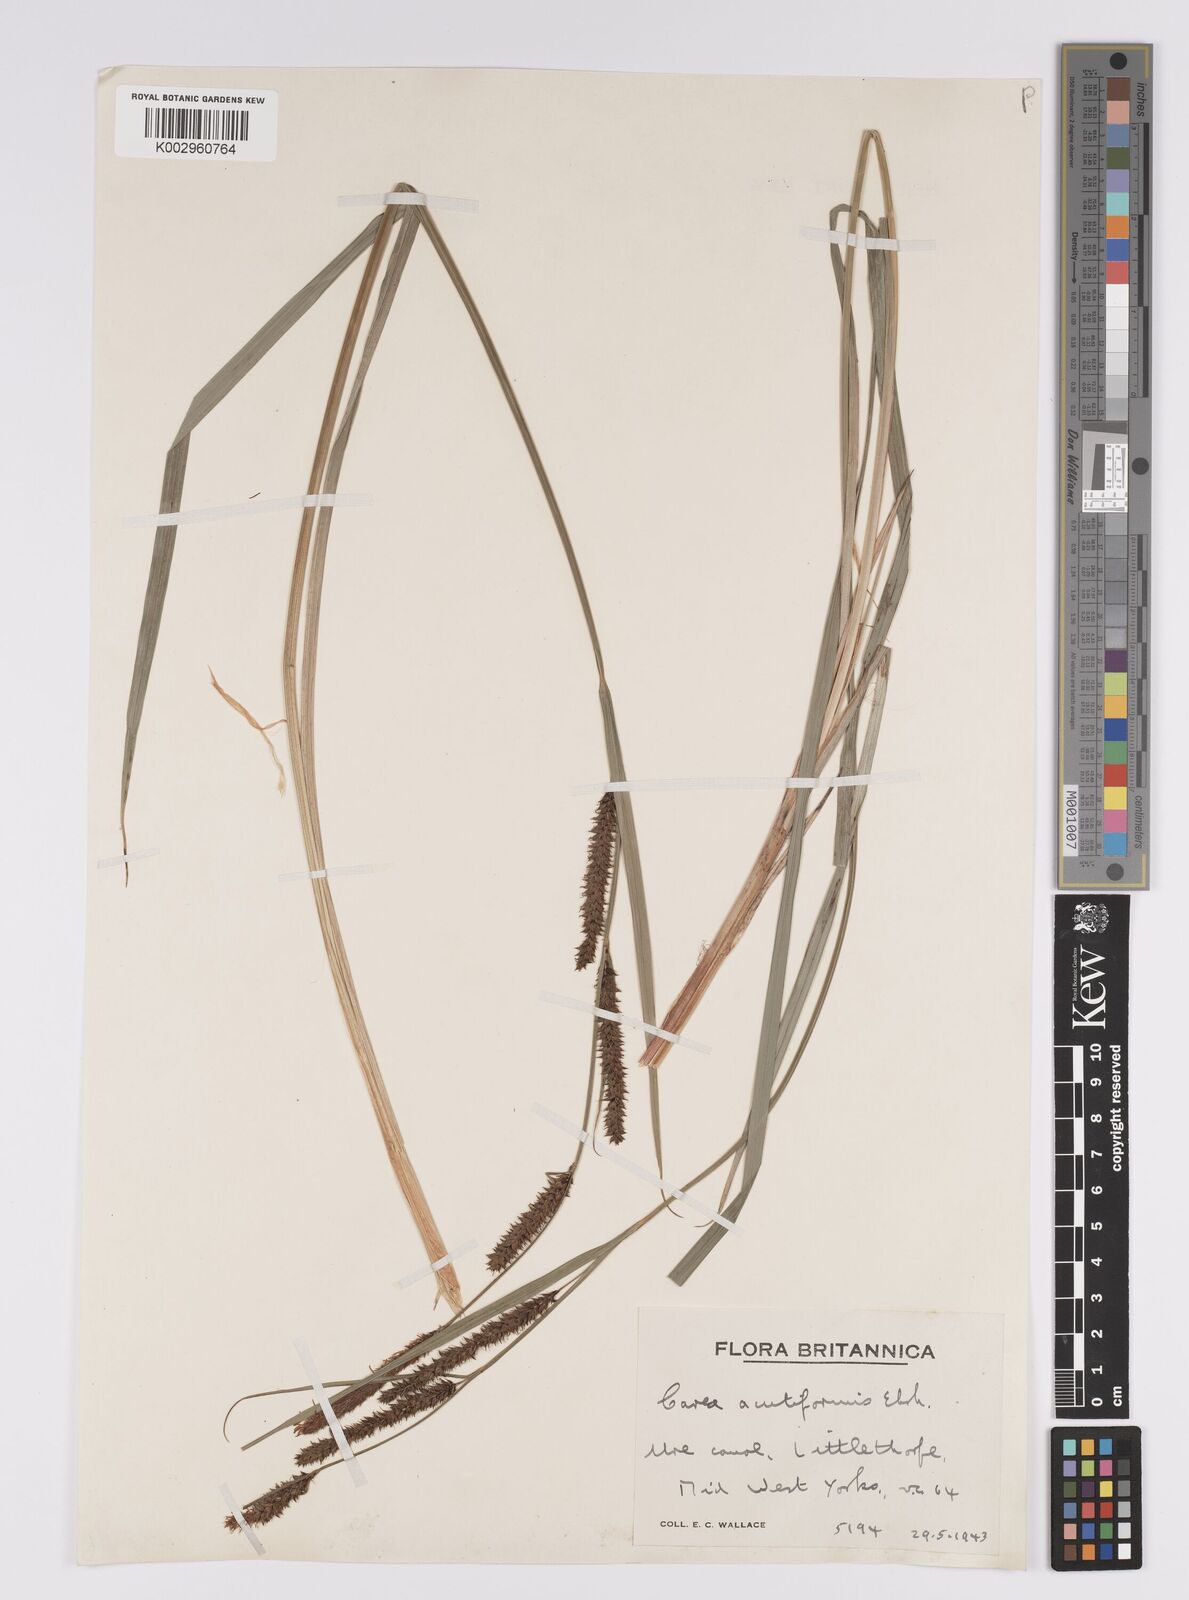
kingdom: Plantae
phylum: Tracheophyta
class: Liliopsida
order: Poales
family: Cyperaceae
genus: Carex
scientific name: Carex acutiformis
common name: Lesser pond-sedge
